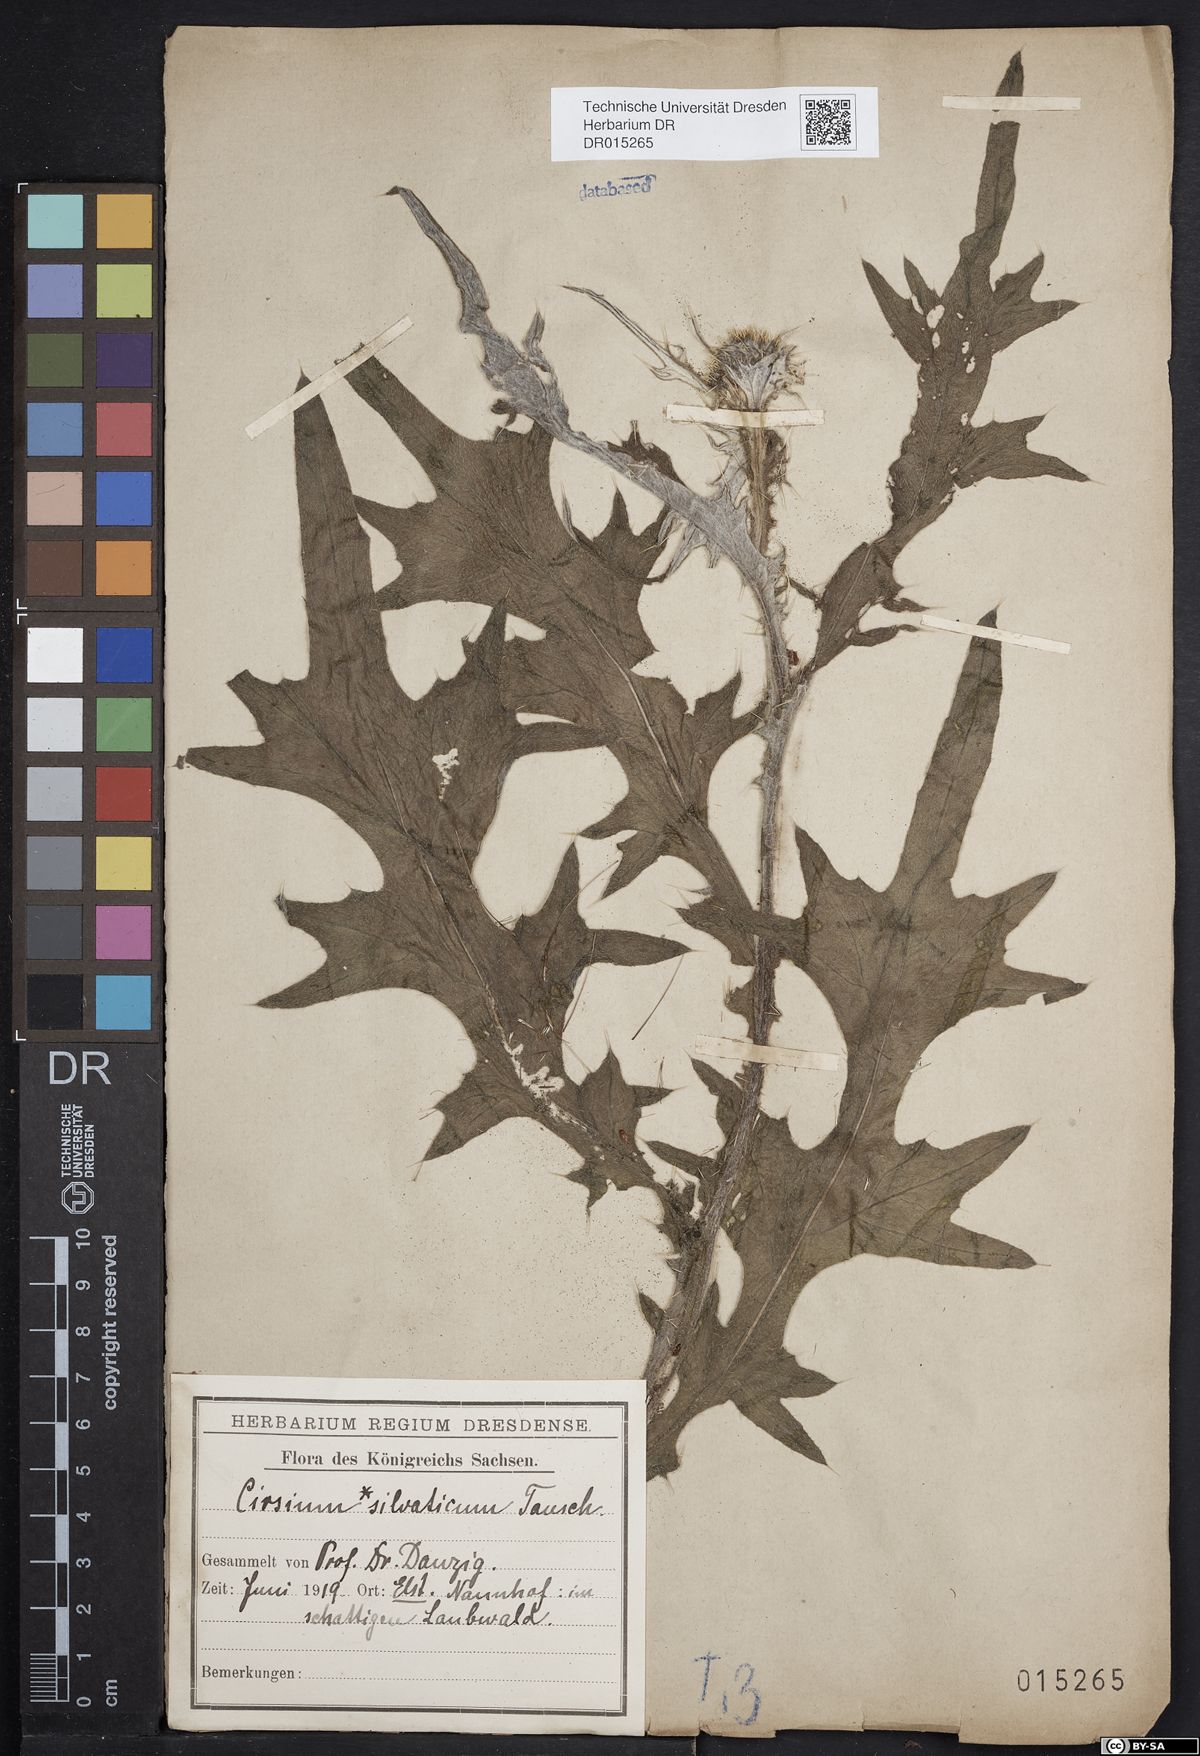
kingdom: Plantae
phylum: Tracheophyta
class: Magnoliopsida
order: Asterales
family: Asteraceae
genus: Cirsium
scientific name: Cirsium vulgare
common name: Bull thistle
